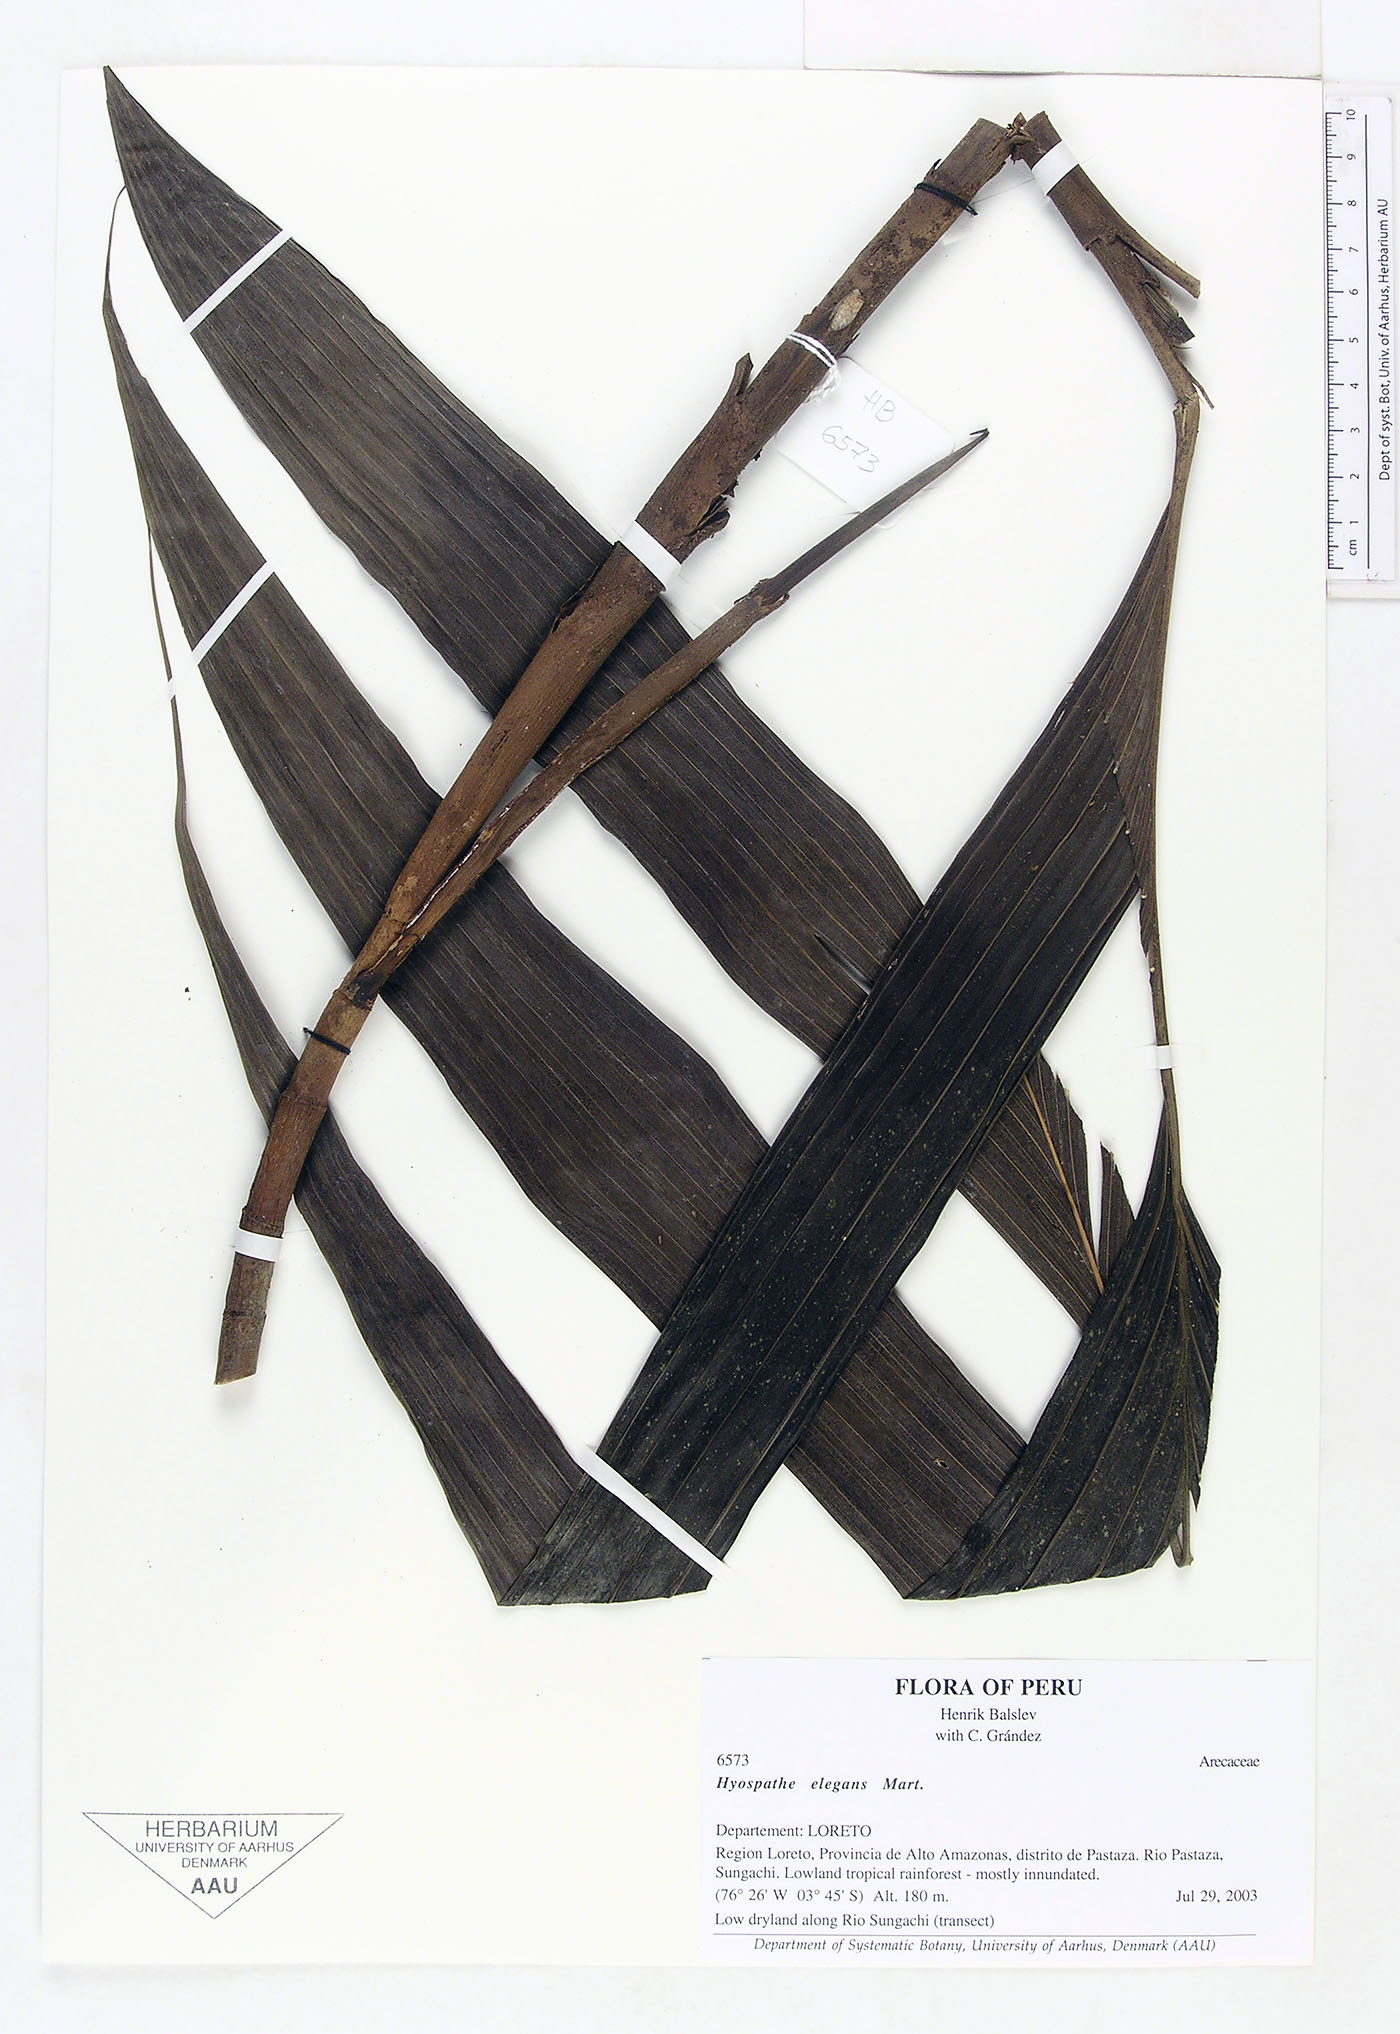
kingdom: Plantae
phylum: Tracheophyta
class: Liliopsida
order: Arecales
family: Arecaceae
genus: Hyospathe
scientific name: Hyospathe elegans
